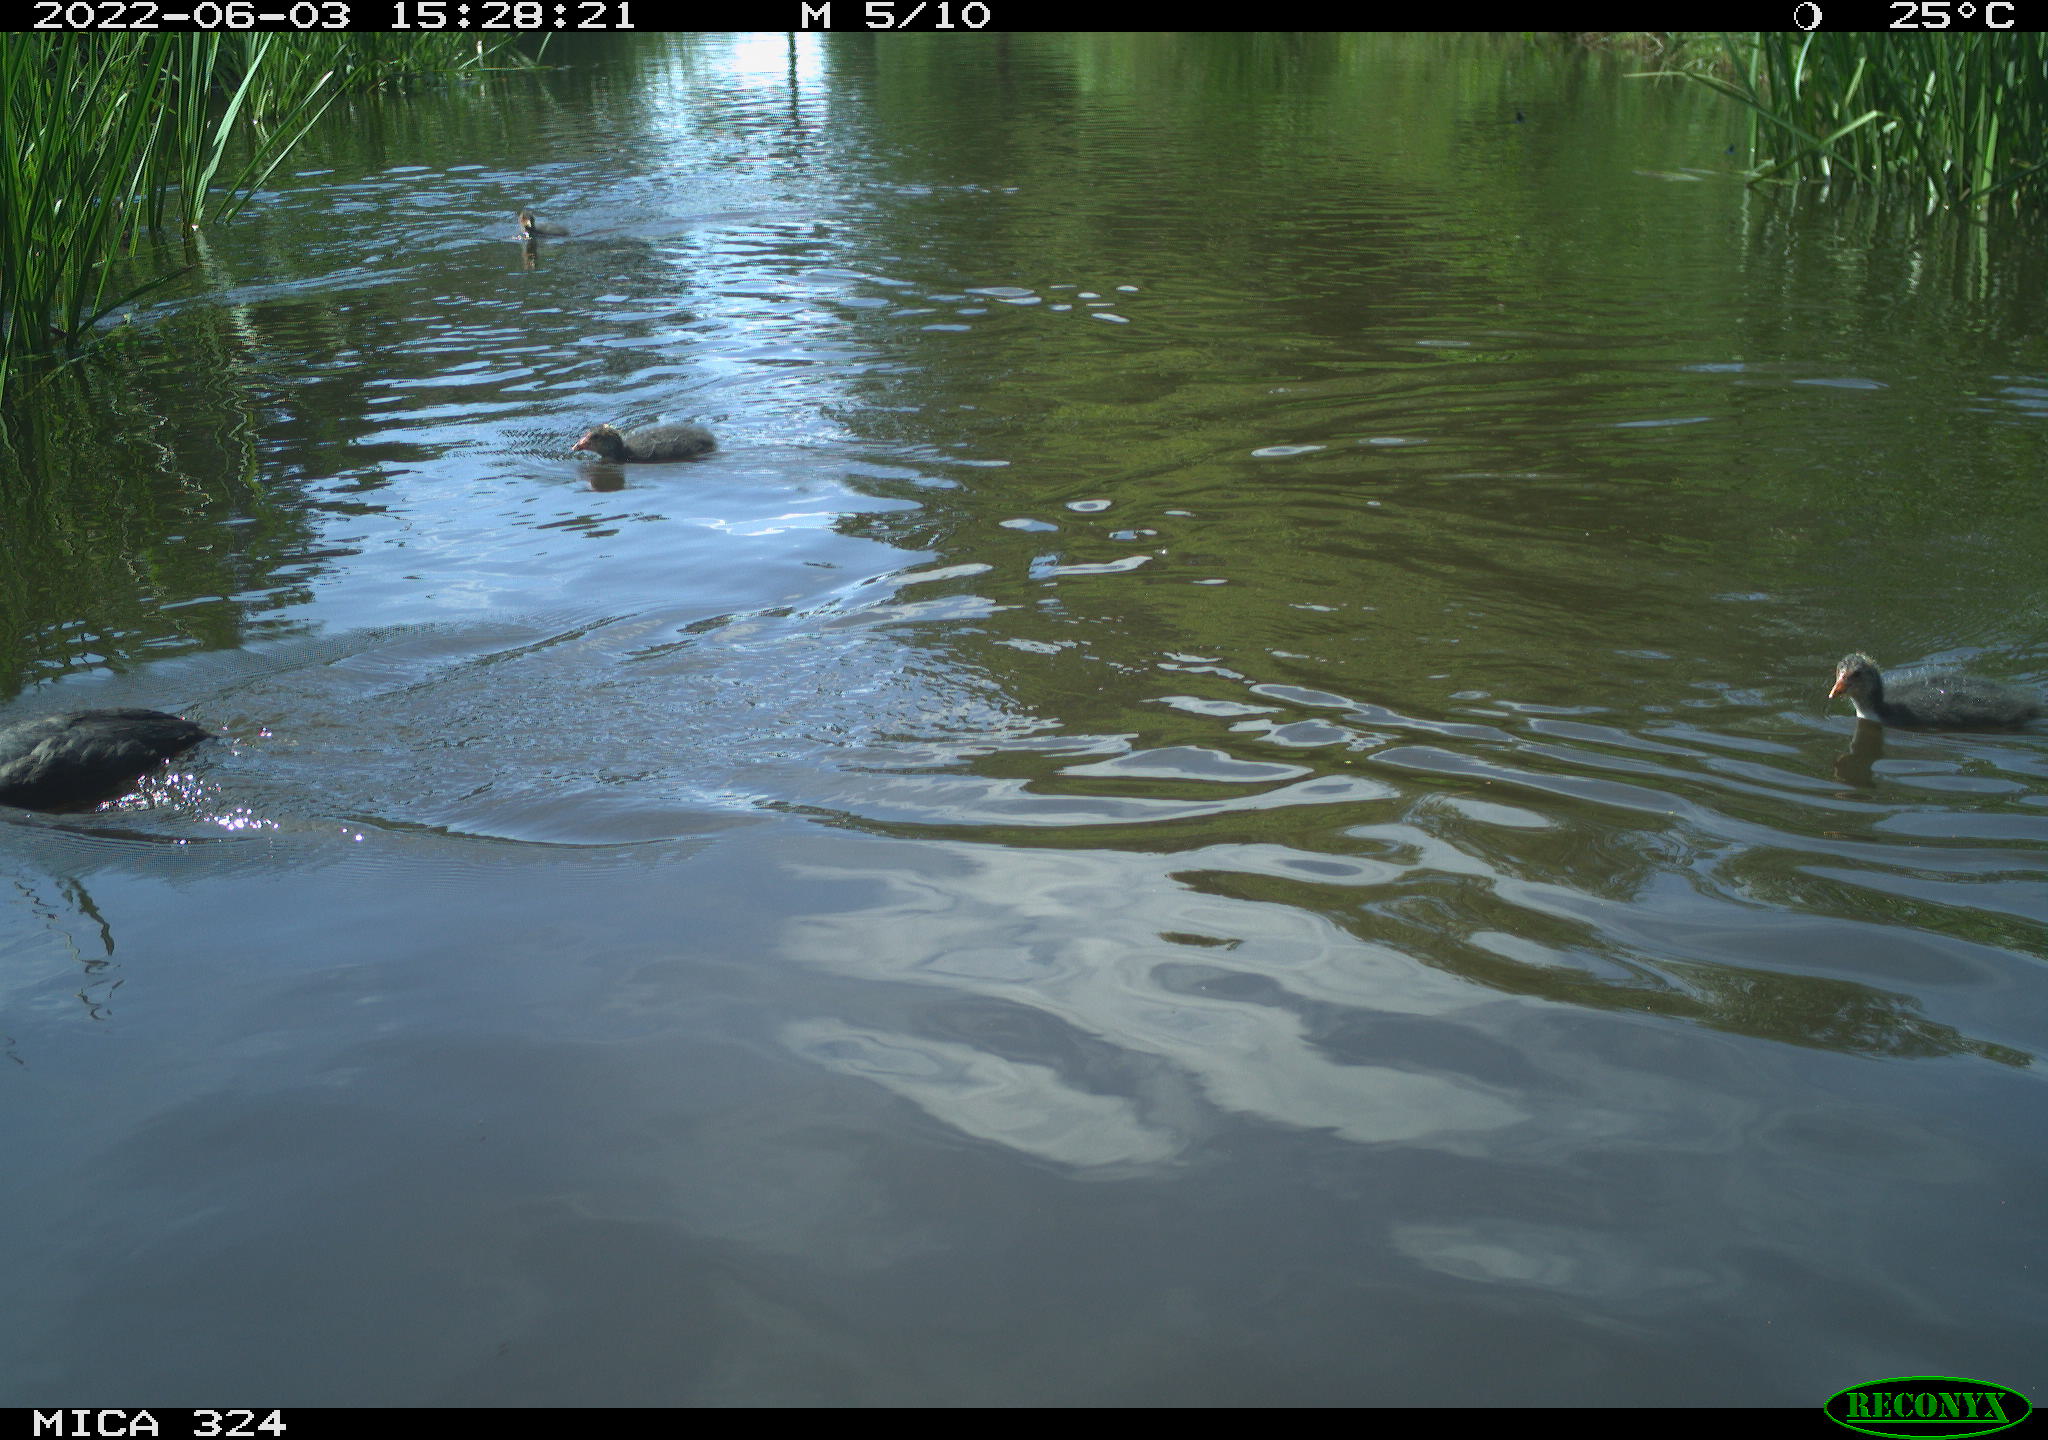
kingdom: Animalia
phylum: Chordata
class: Aves
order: Gruiformes
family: Rallidae
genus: Fulica
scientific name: Fulica atra
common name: Eurasian coot
